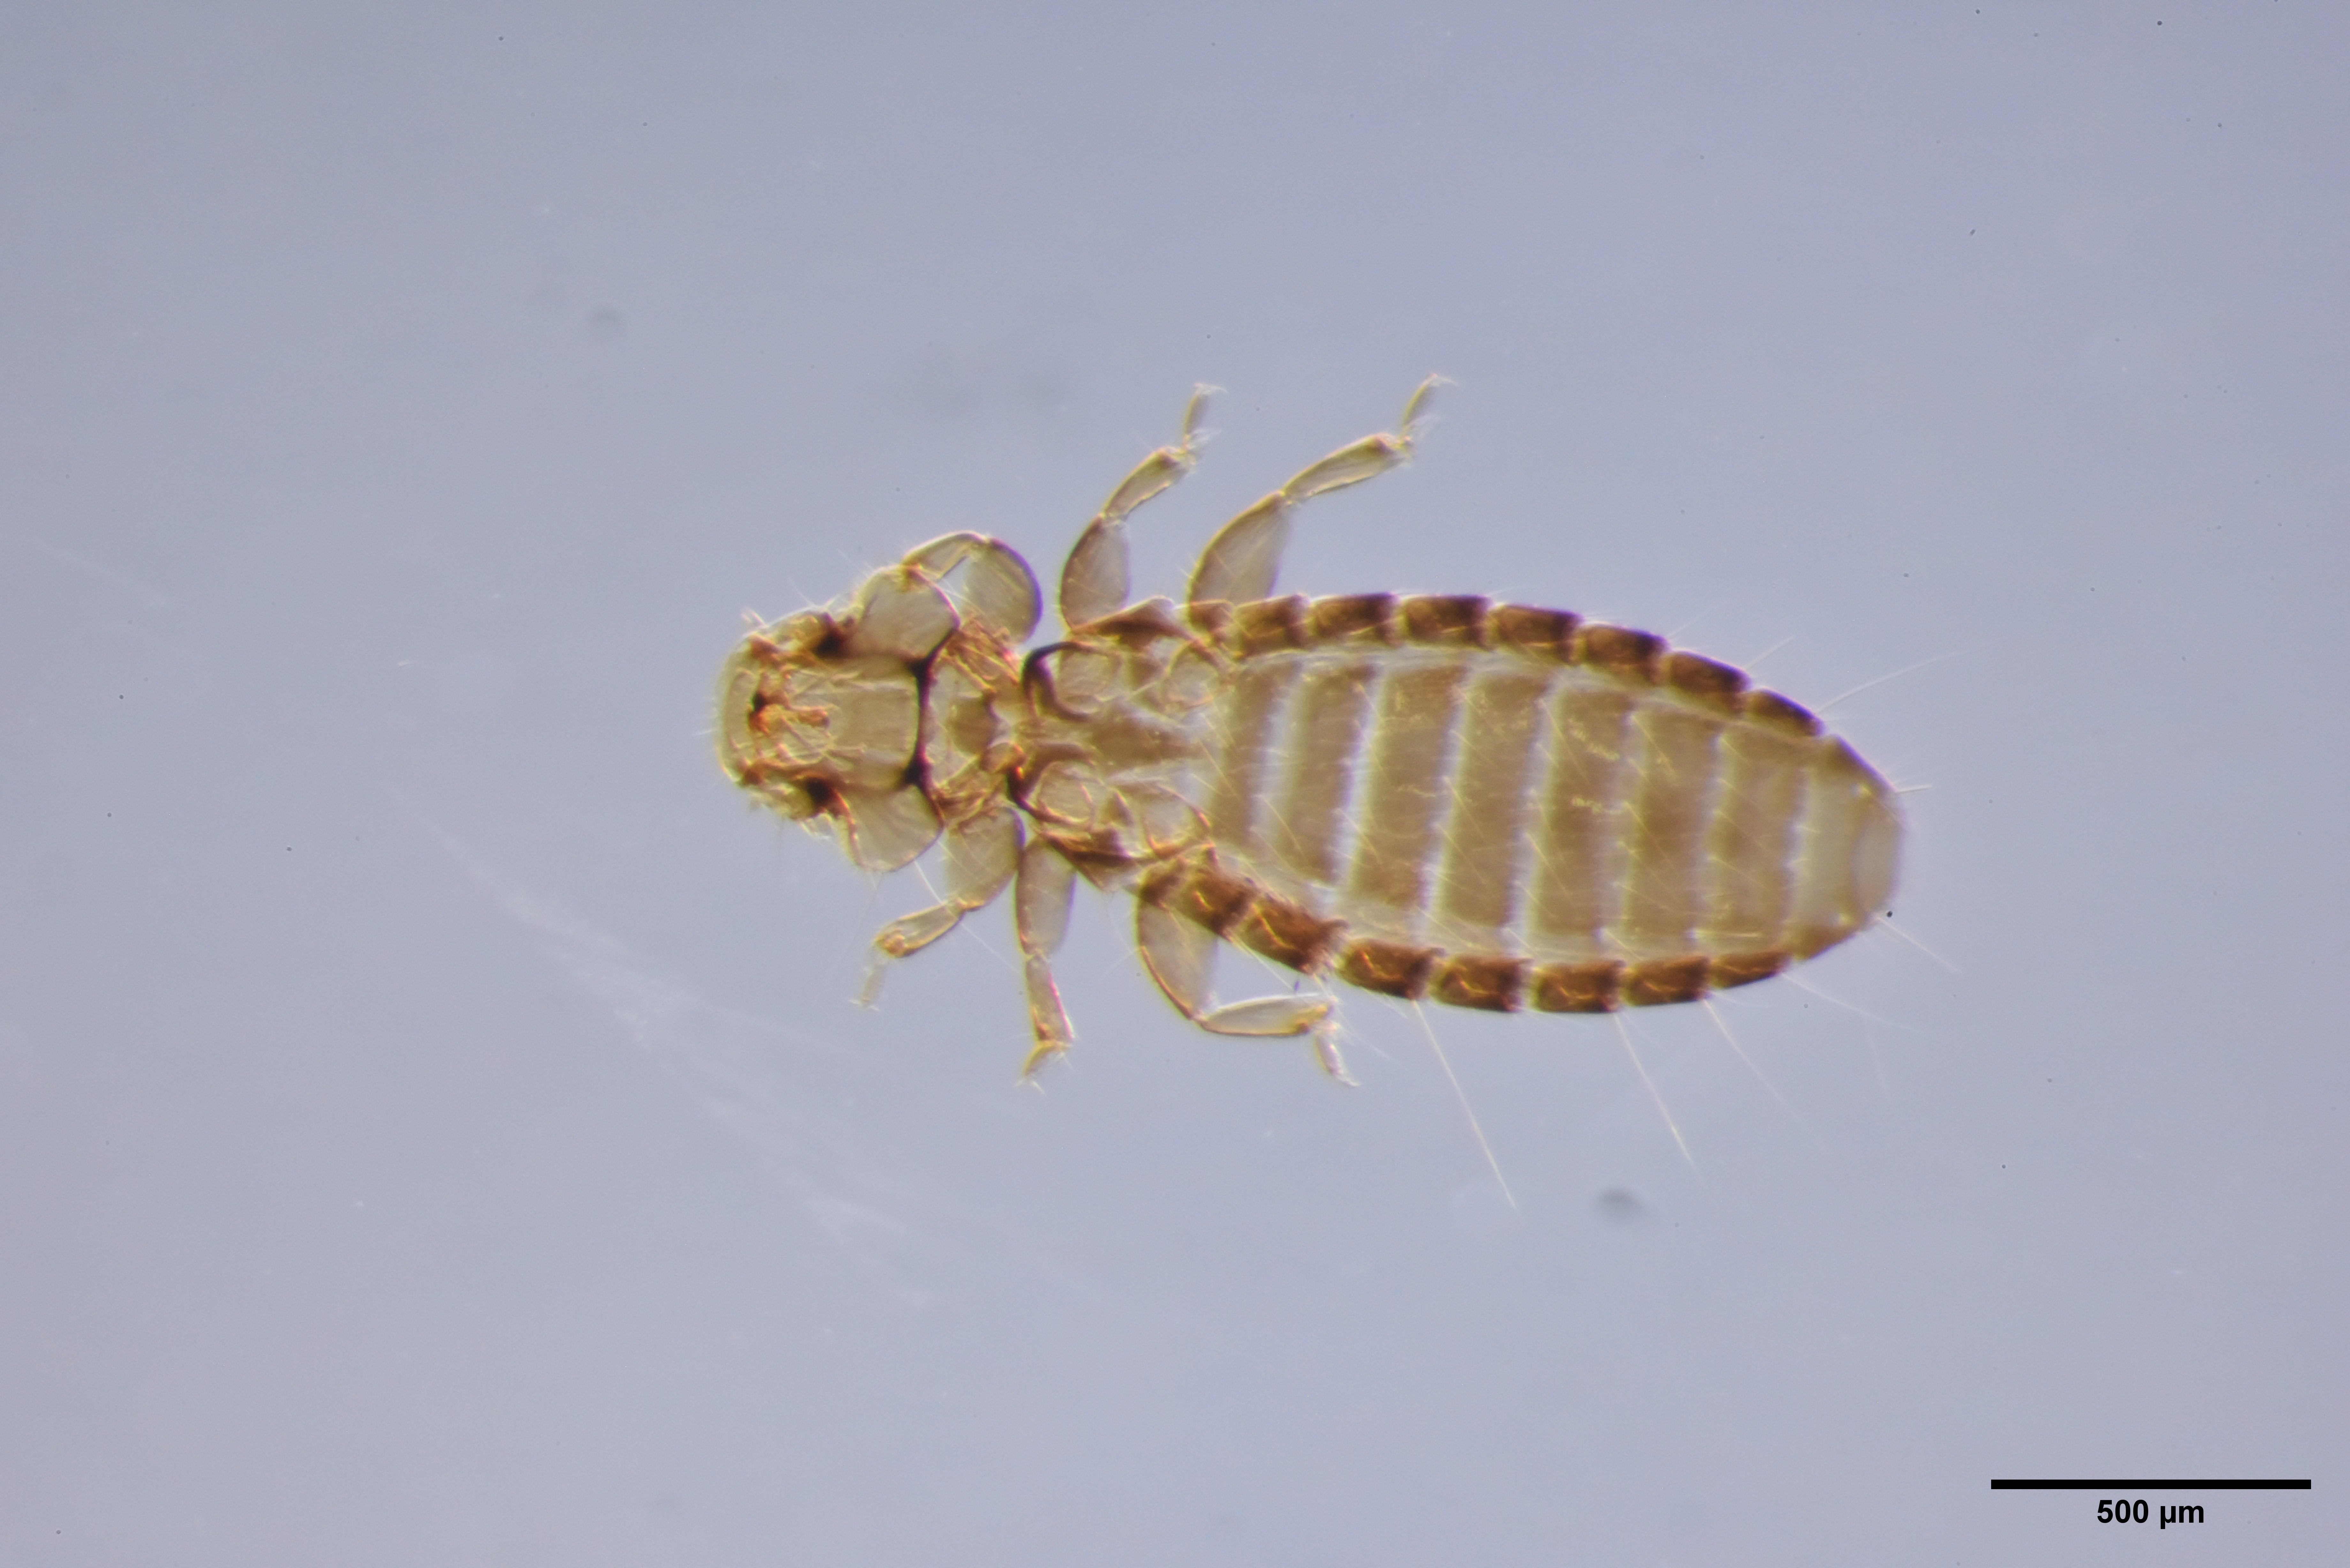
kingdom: Animalia
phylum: Arthropoda
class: Insecta
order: Psocodea
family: Ancistronidae
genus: Actornithophilus
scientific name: Actornithophilus ochraceus
